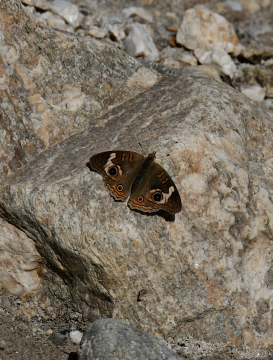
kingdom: Animalia
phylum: Arthropoda
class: Insecta
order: Lepidoptera
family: Nymphalidae
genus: Junonia
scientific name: Junonia coenia
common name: Common Buckeye
